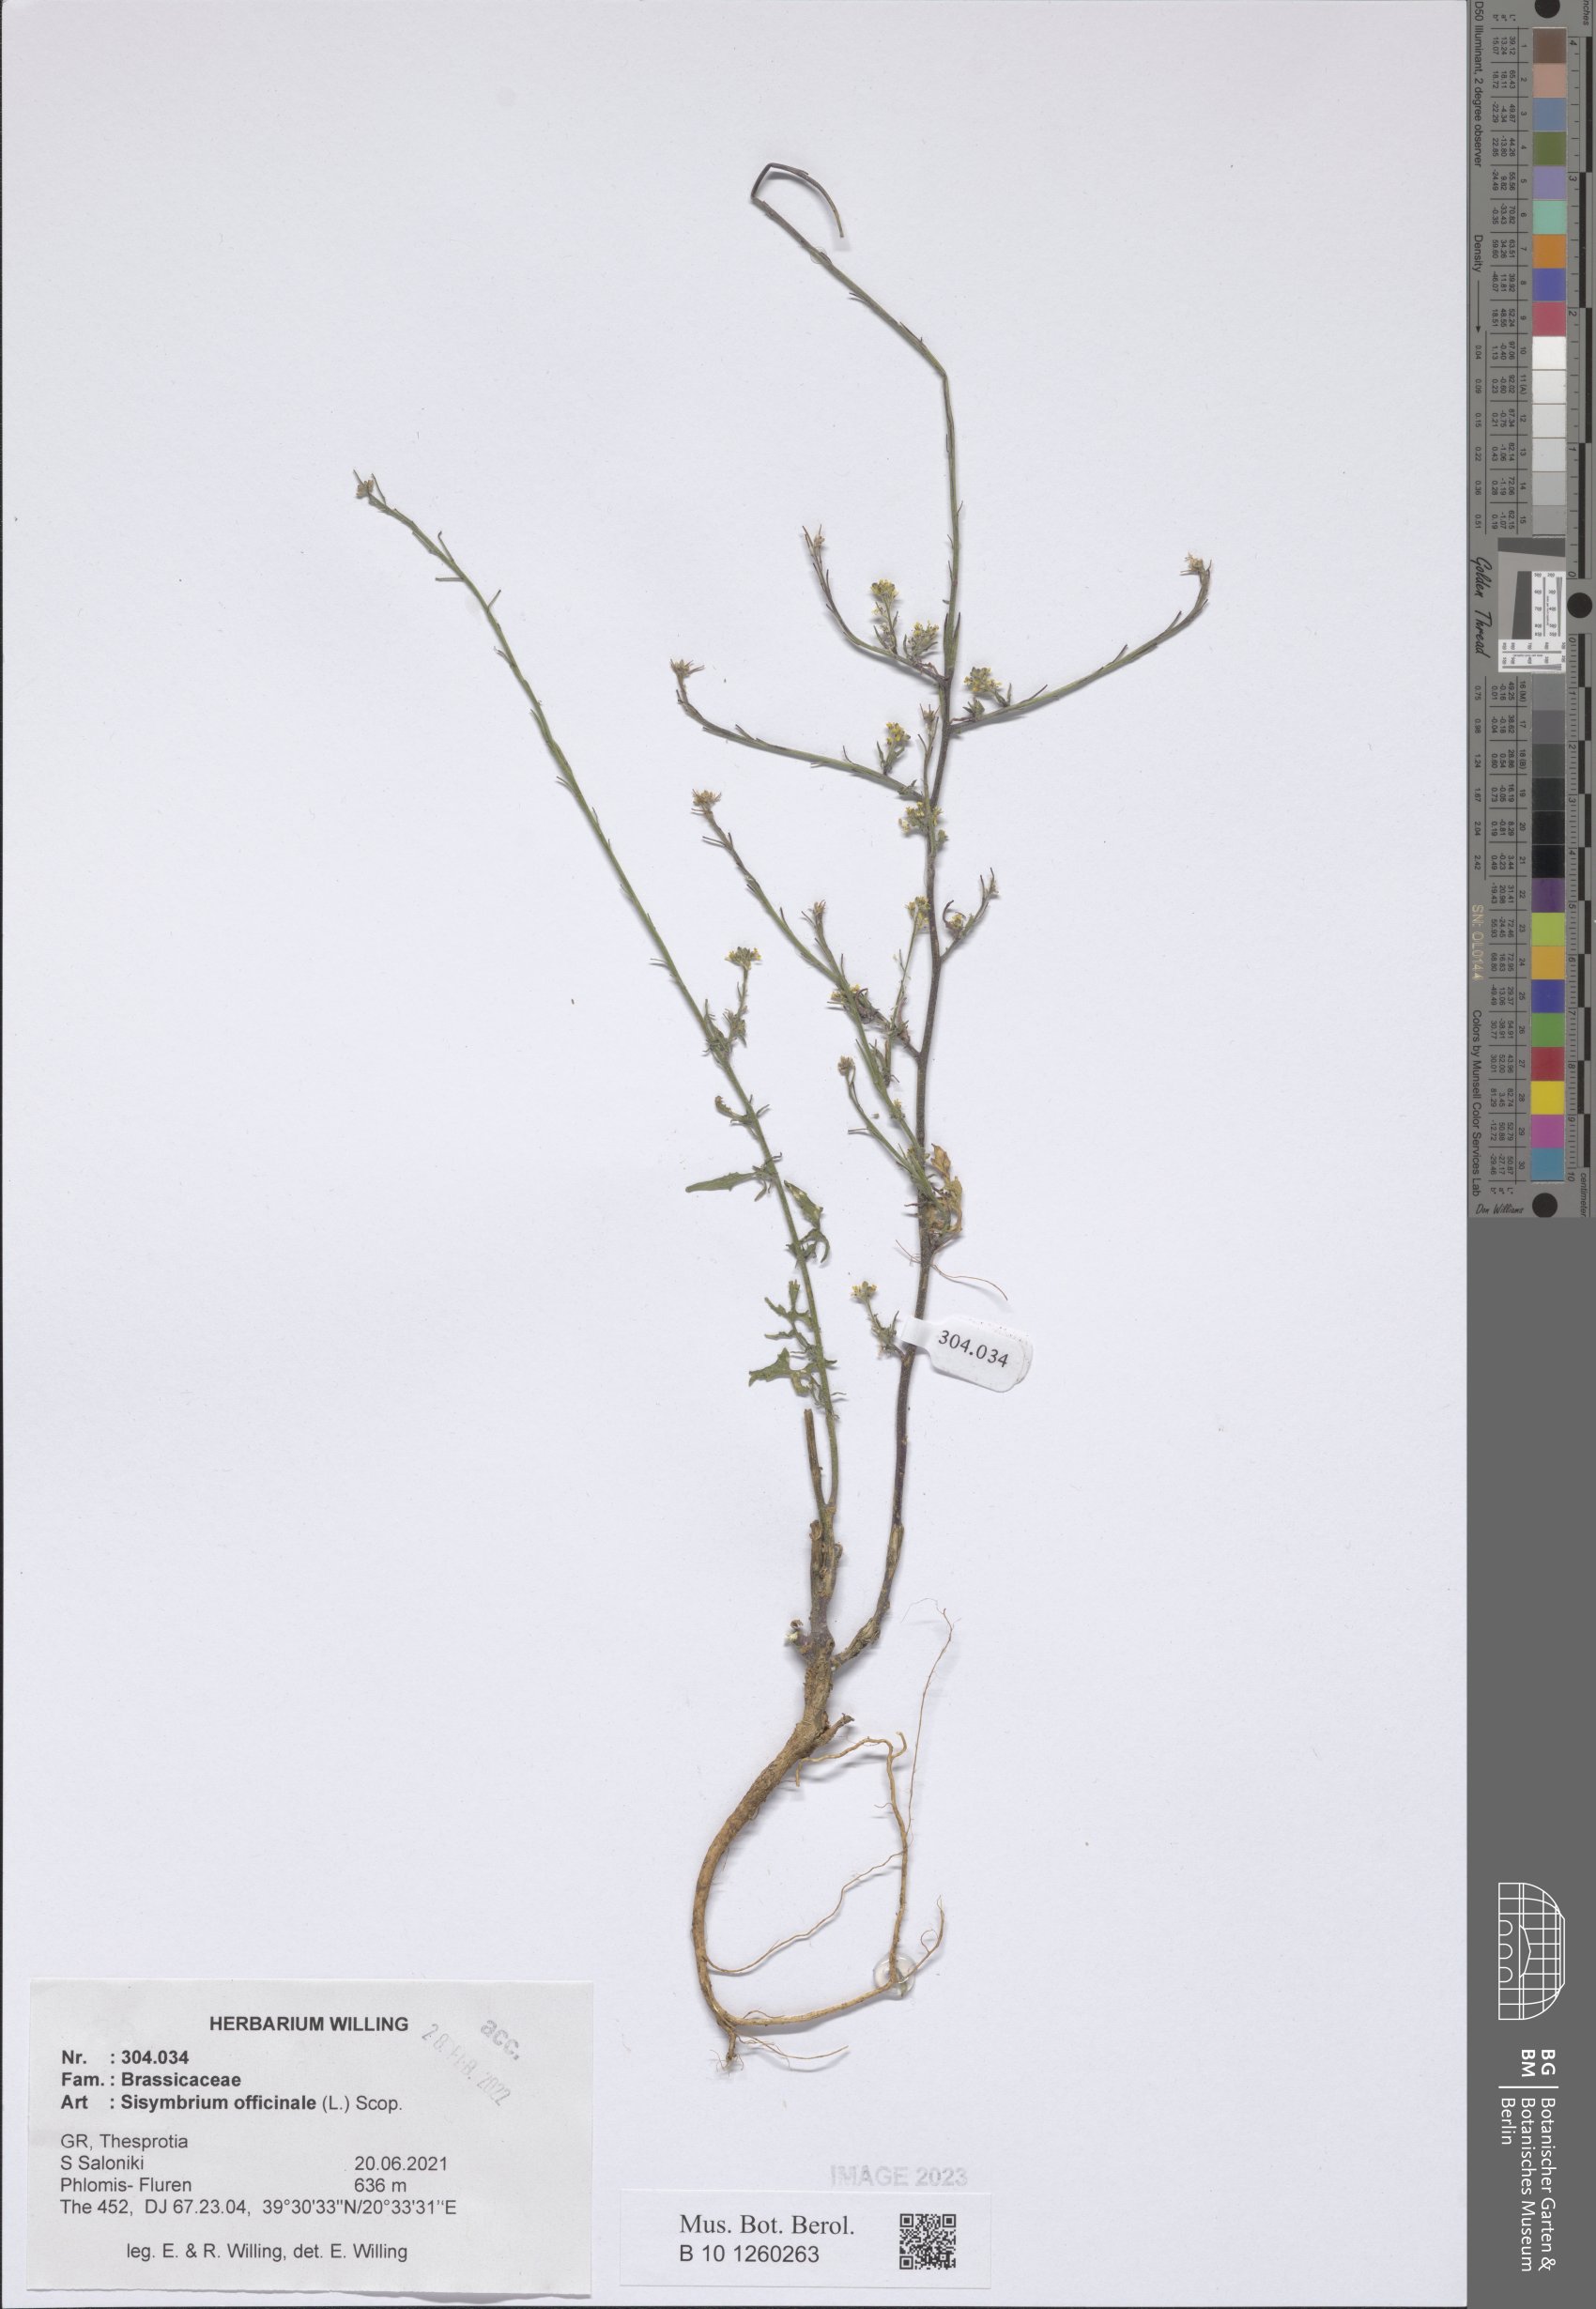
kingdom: Plantae
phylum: Tracheophyta
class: Magnoliopsida
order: Brassicales
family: Brassicaceae
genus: Sisymbrium
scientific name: Sisymbrium officinale
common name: Hedge mustard
